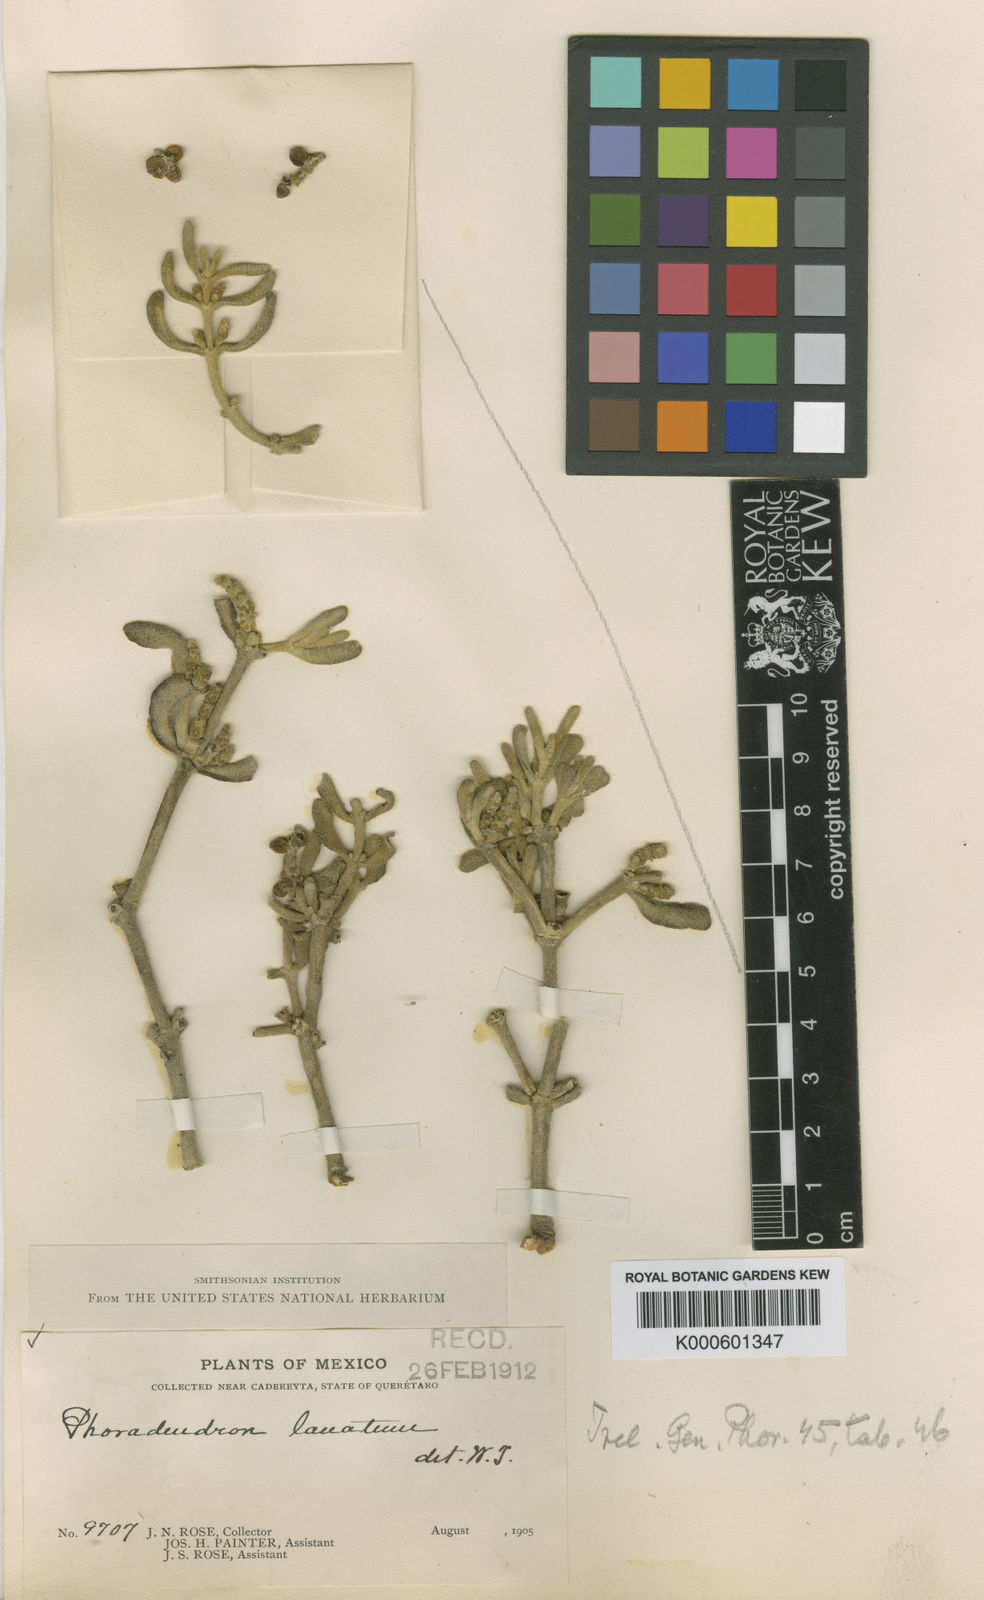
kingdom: Plantae
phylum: Tracheophyta
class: Magnoliopsida
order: Santalales
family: Viscaceae
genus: Phoradendron
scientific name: Phoradendron lanatum
